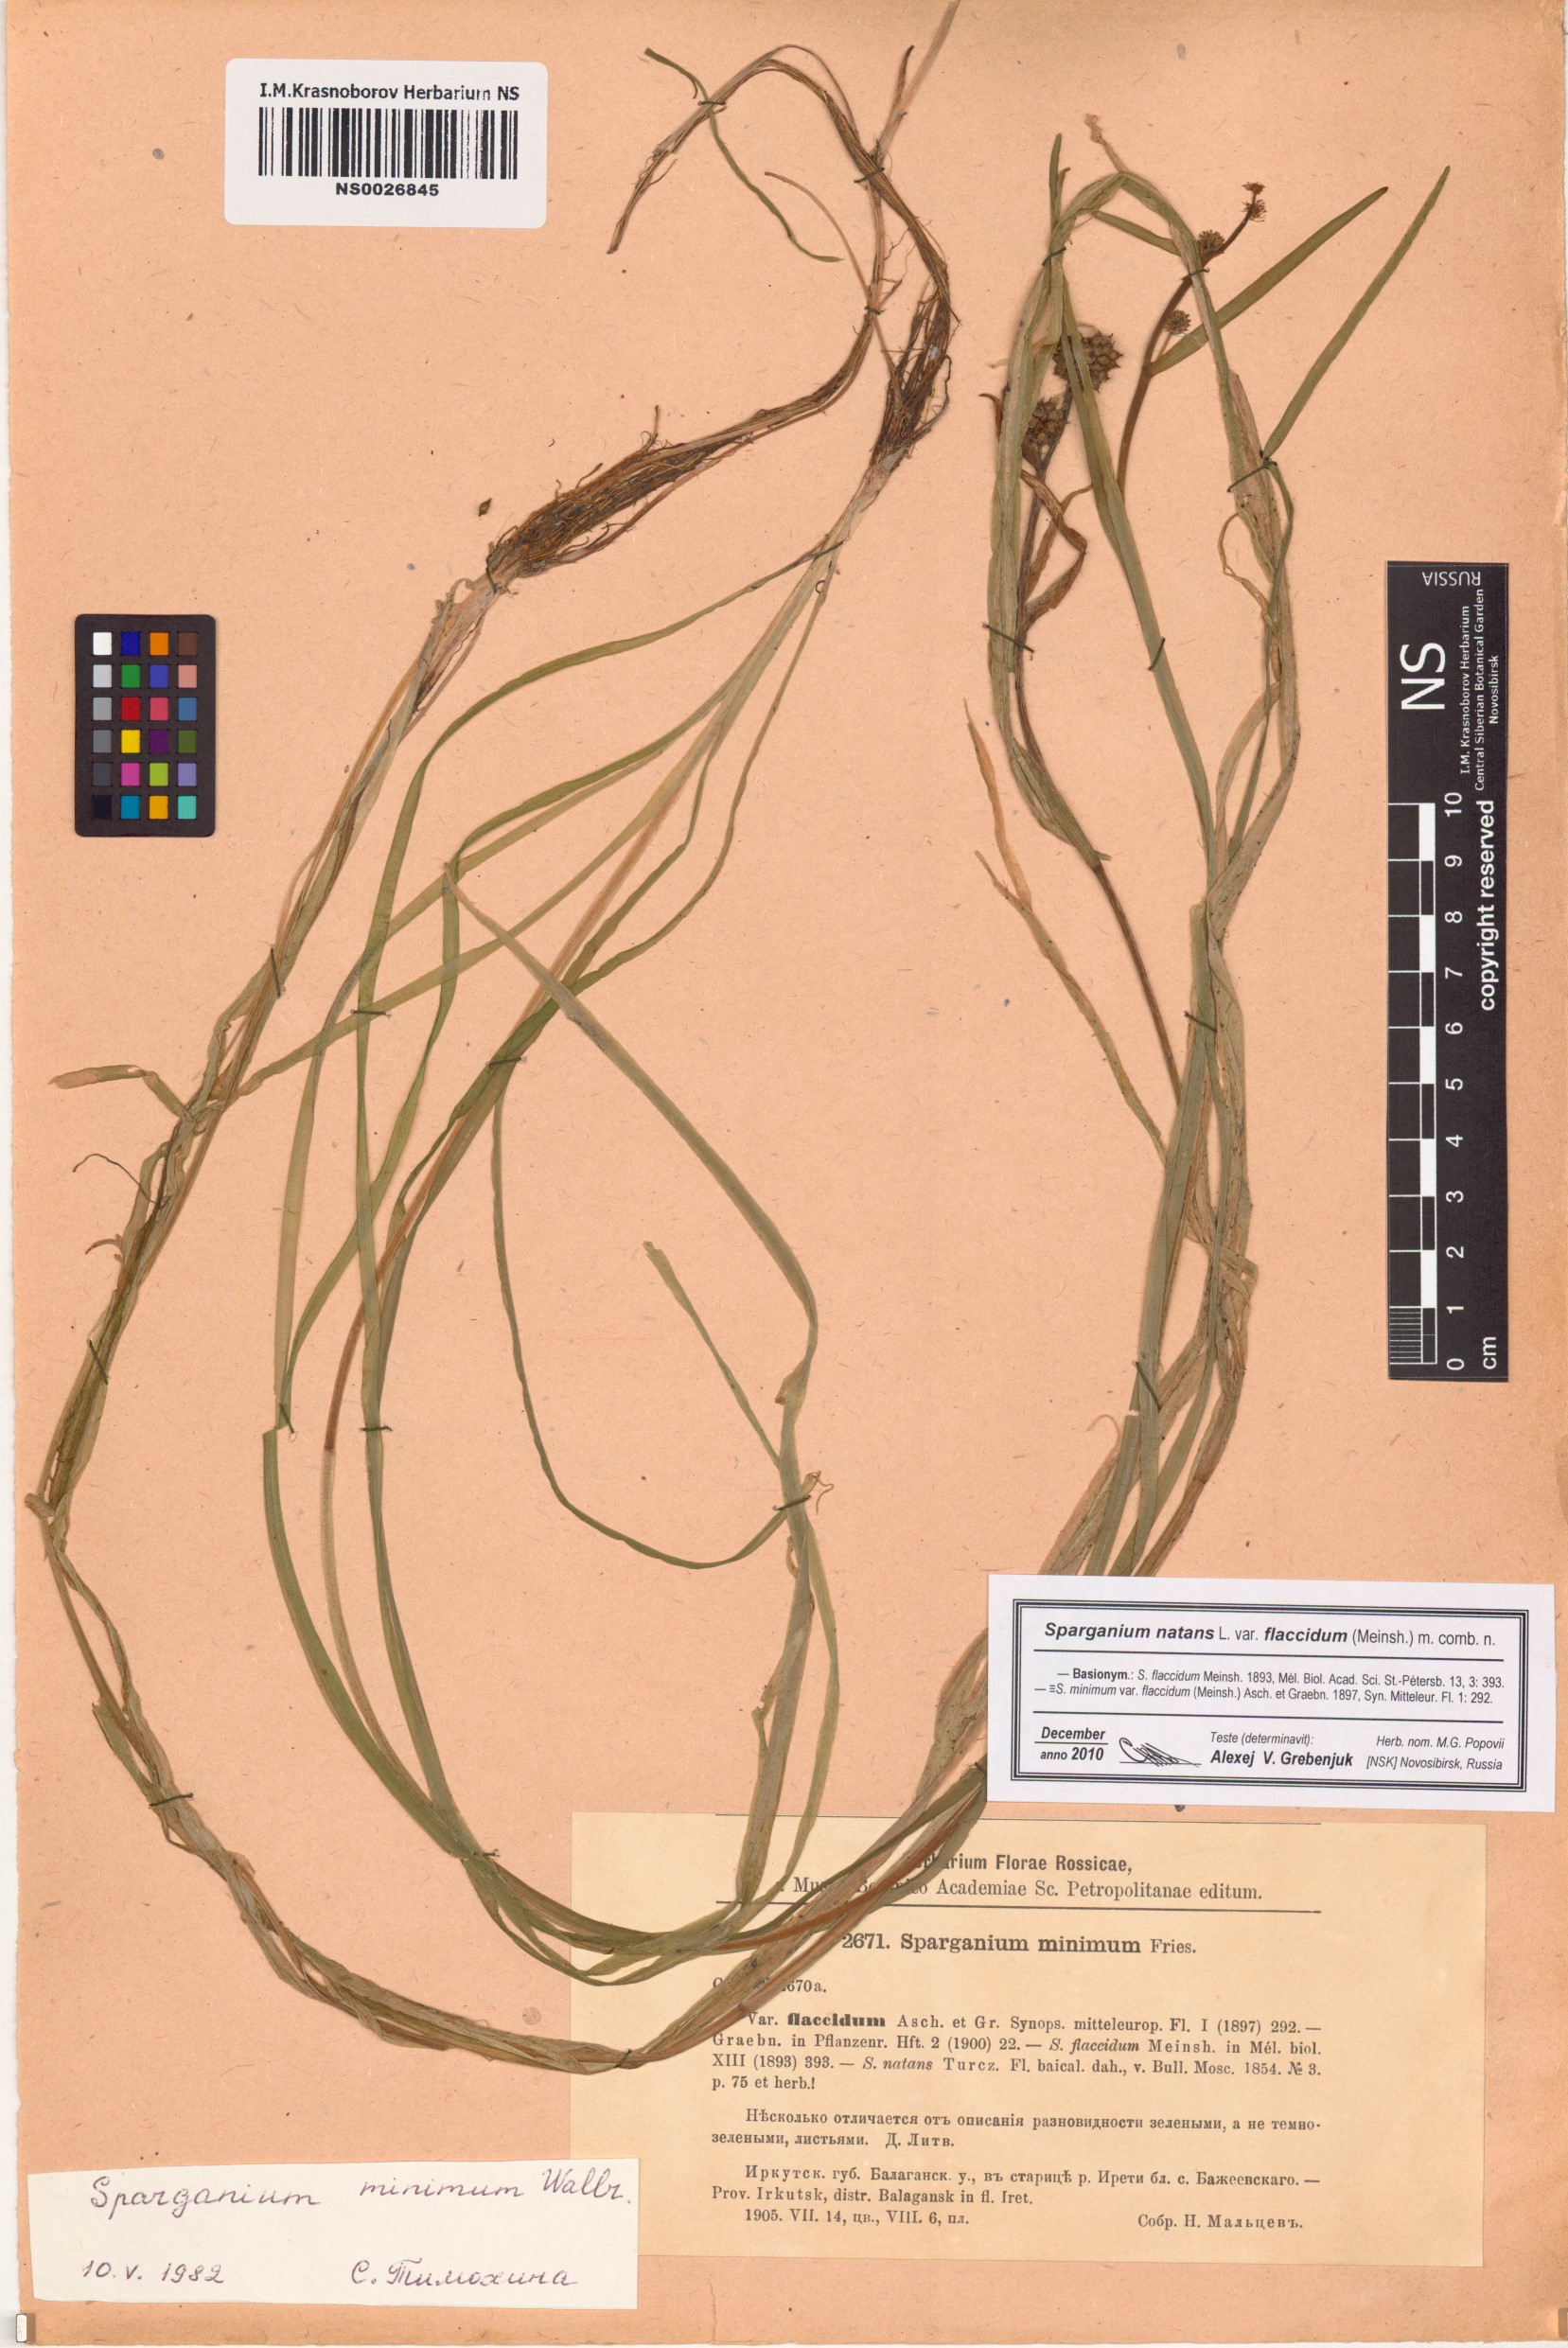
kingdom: Plantae
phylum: Tracheophyta
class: Liliopsida
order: Poales
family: Typhaceae
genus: Sparganium
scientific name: Sparganium natans
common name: Least bur-reed
